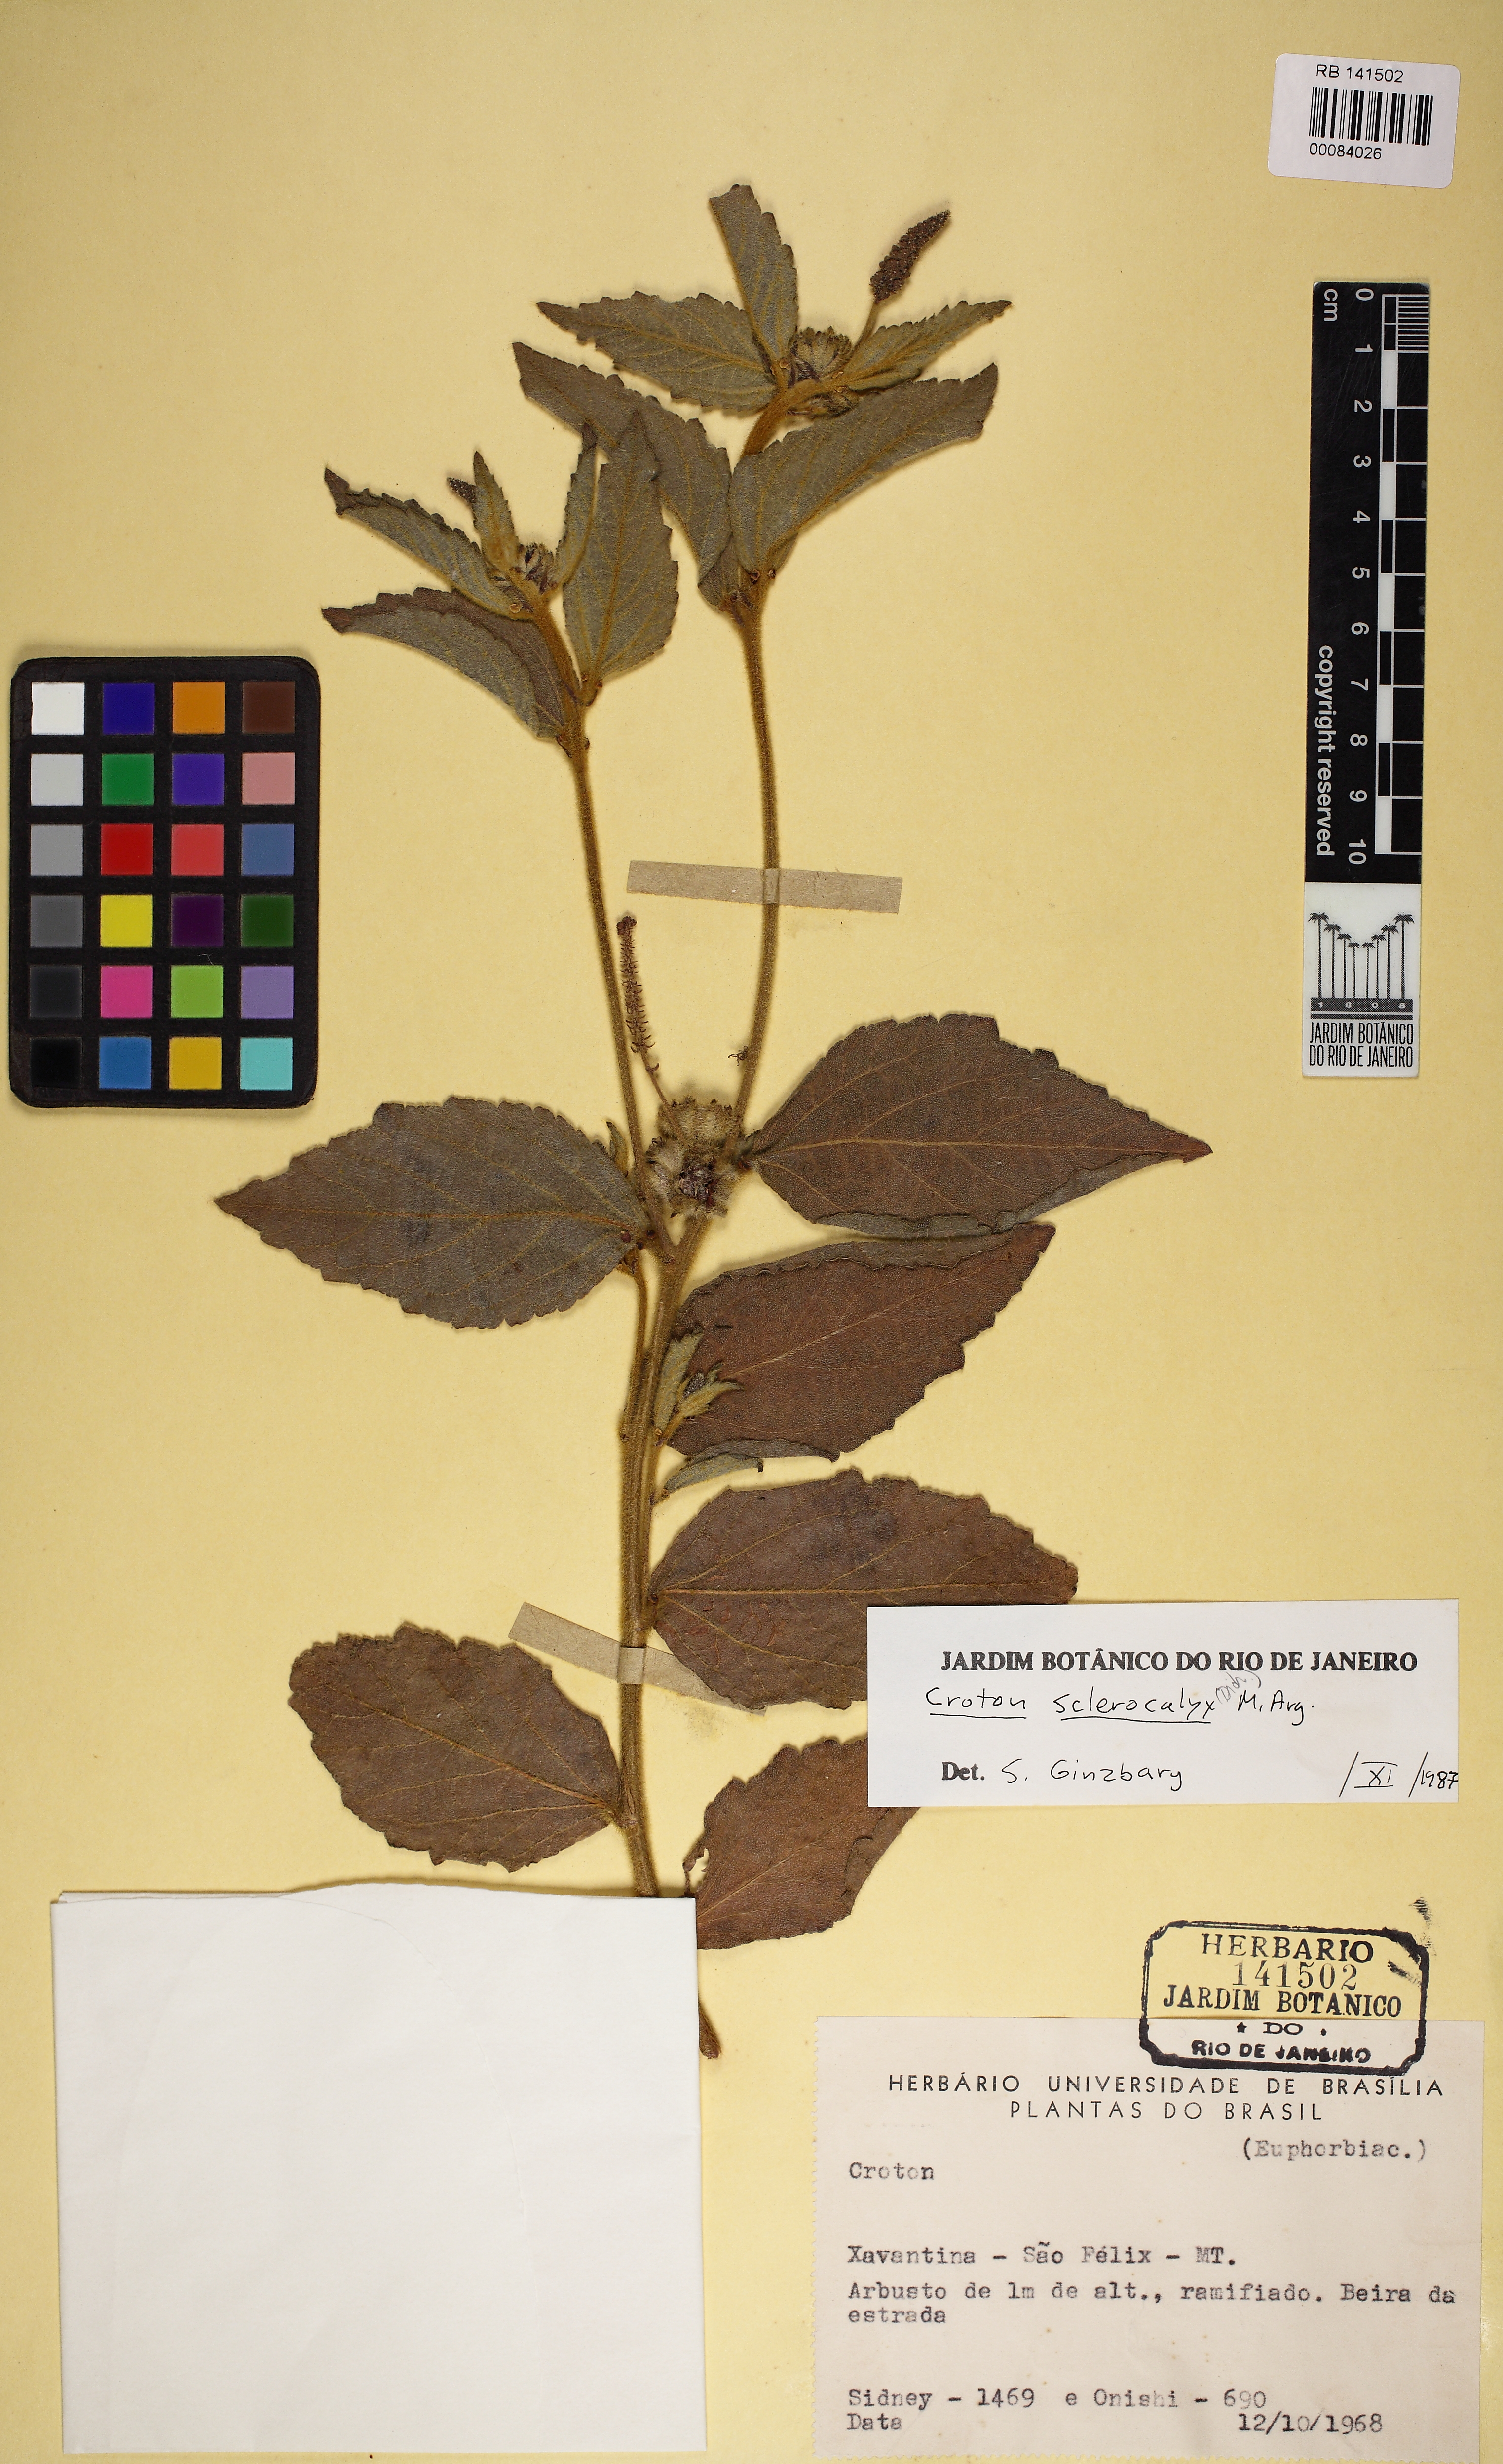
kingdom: Plantae
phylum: Tracheophyta
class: Magnoliopsida
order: Malpighiales
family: Euphorbiaceae
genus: Croton
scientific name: Croton sclerocalyx
